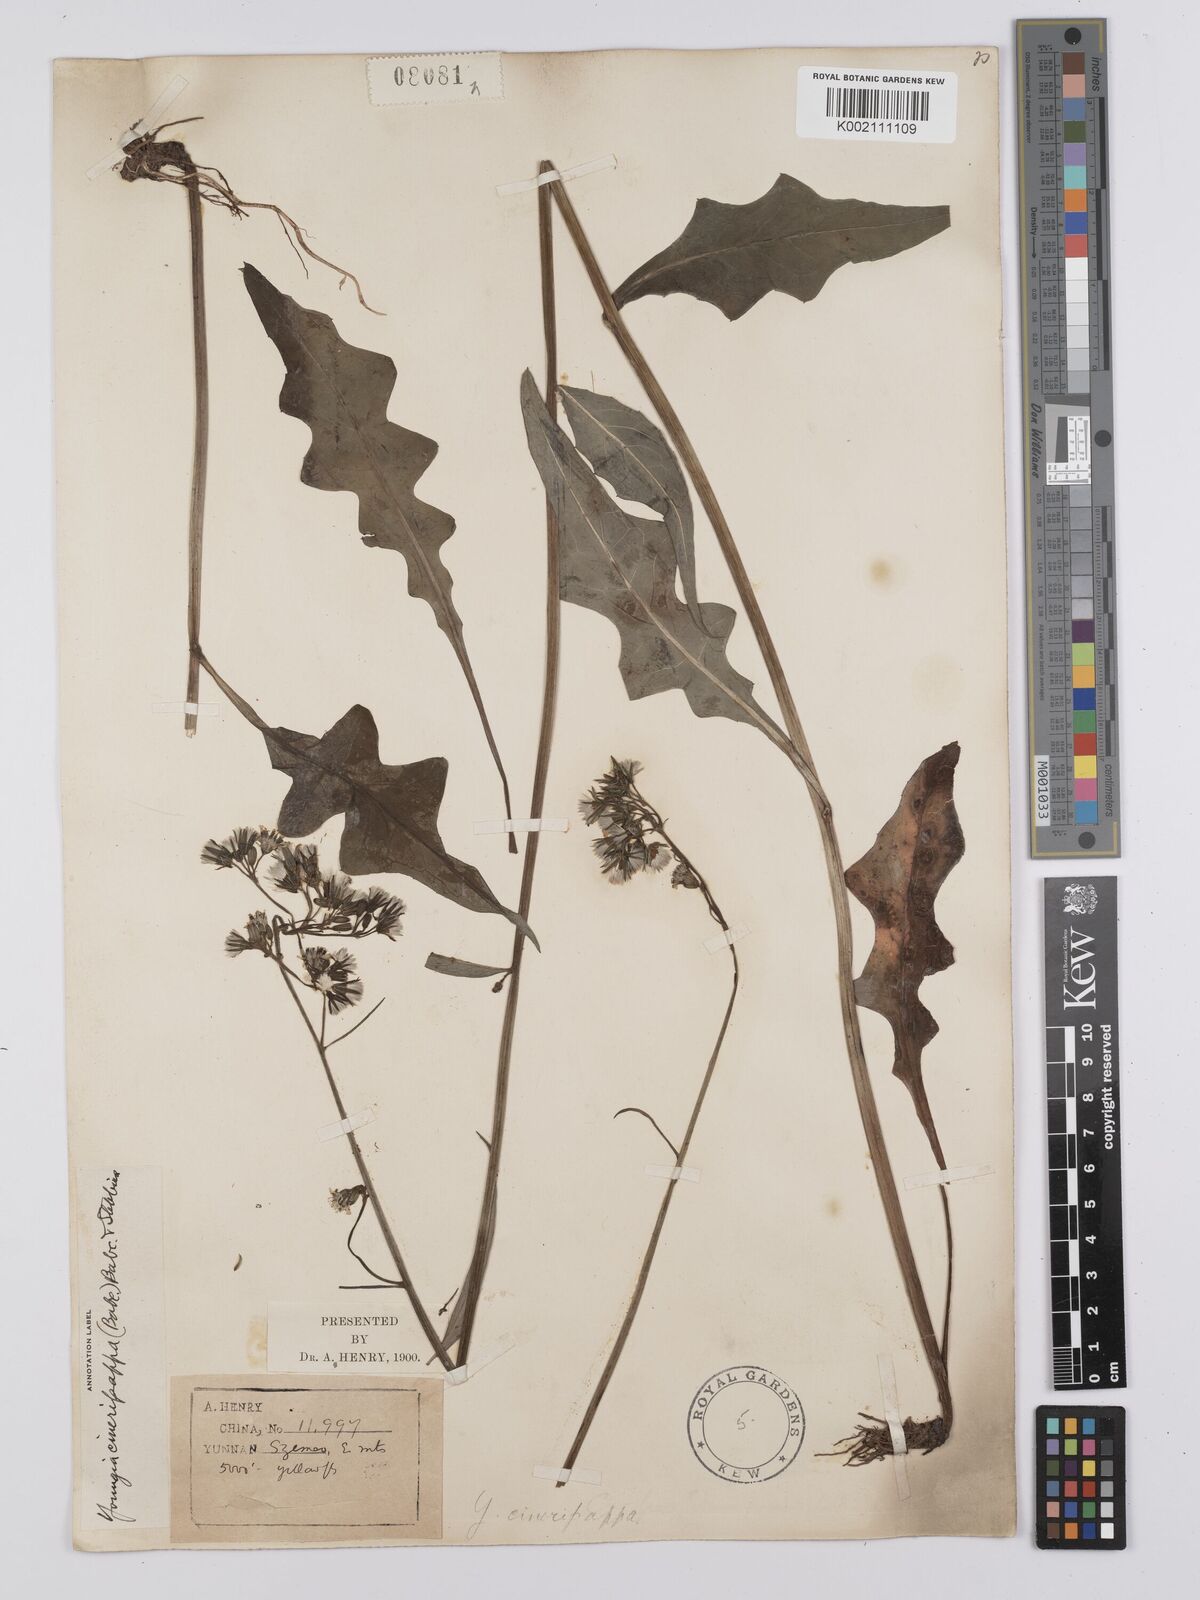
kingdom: Plantae
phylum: Tracheophyta
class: Magnoliopsida
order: Asterales
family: Asteraceae
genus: Youngia
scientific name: Youngia cineripappa
